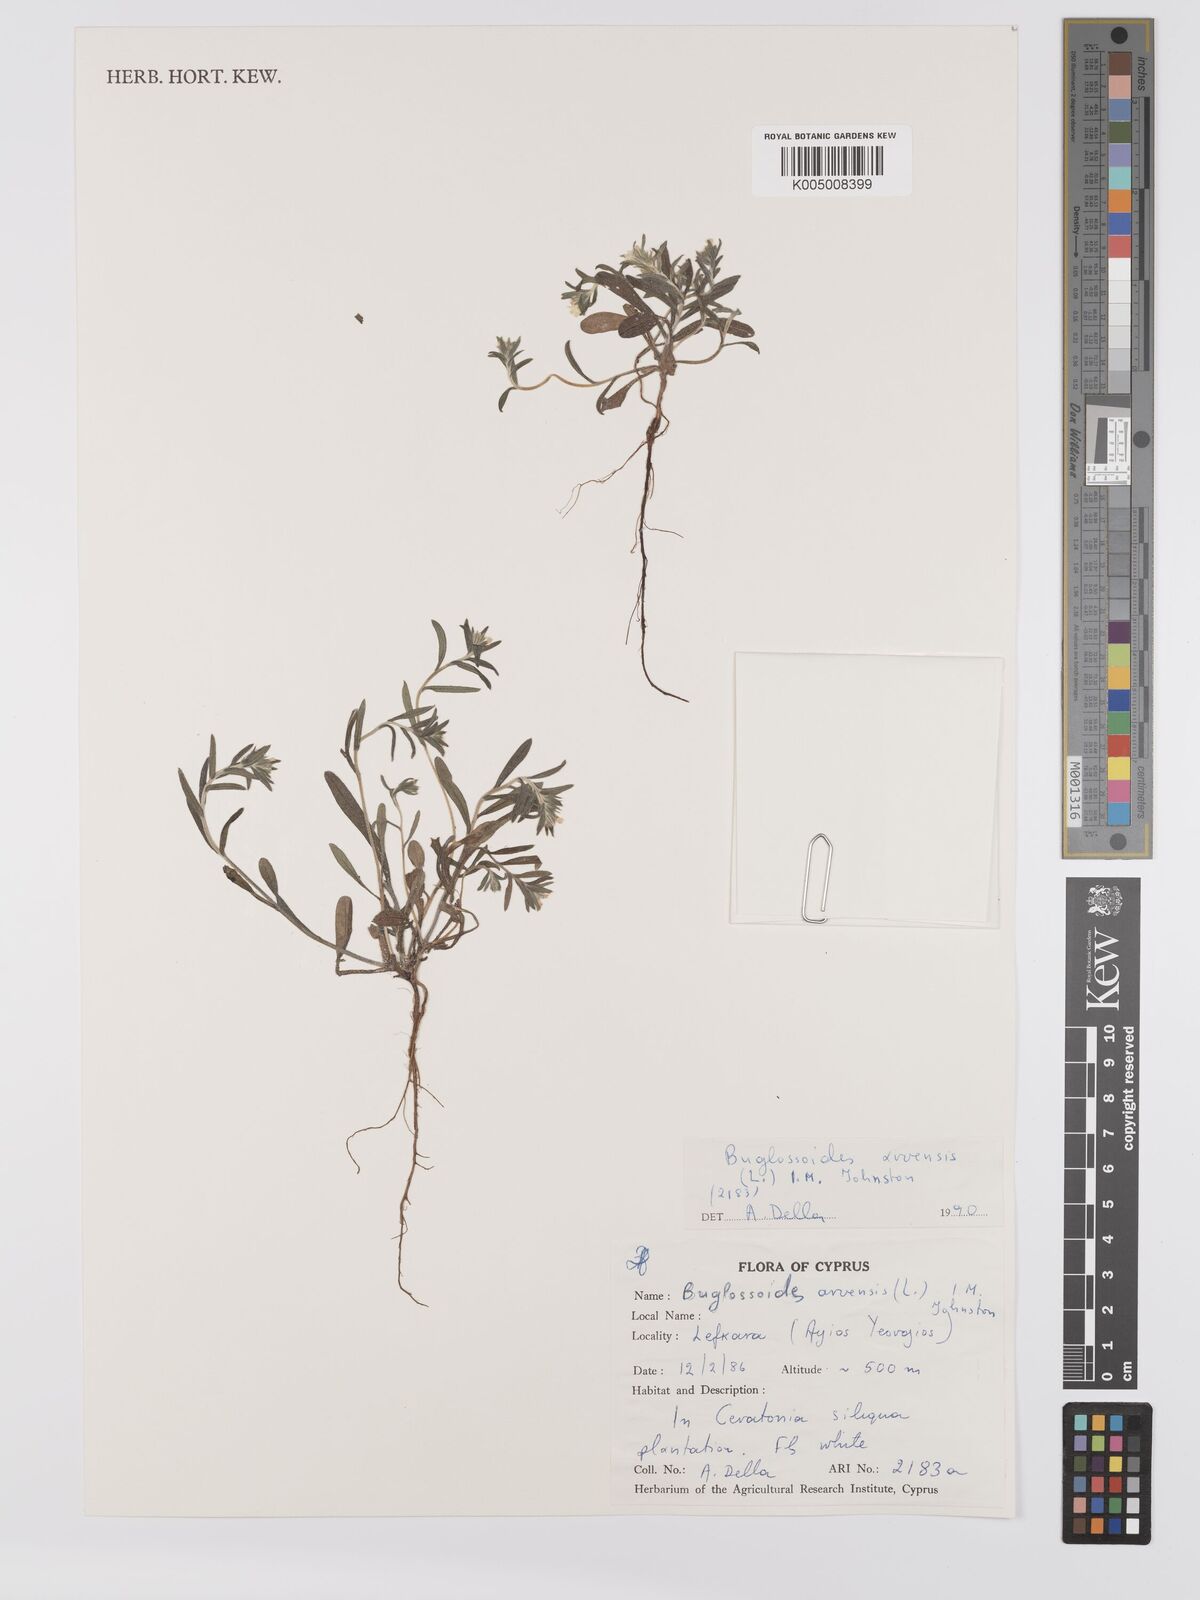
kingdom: Plantae
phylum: Tracheophyta
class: Magnoliopsida
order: Boraginales
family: Boraginaceae
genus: Buglossoides
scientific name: Buglossoides arvensis
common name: Corn gromwell
